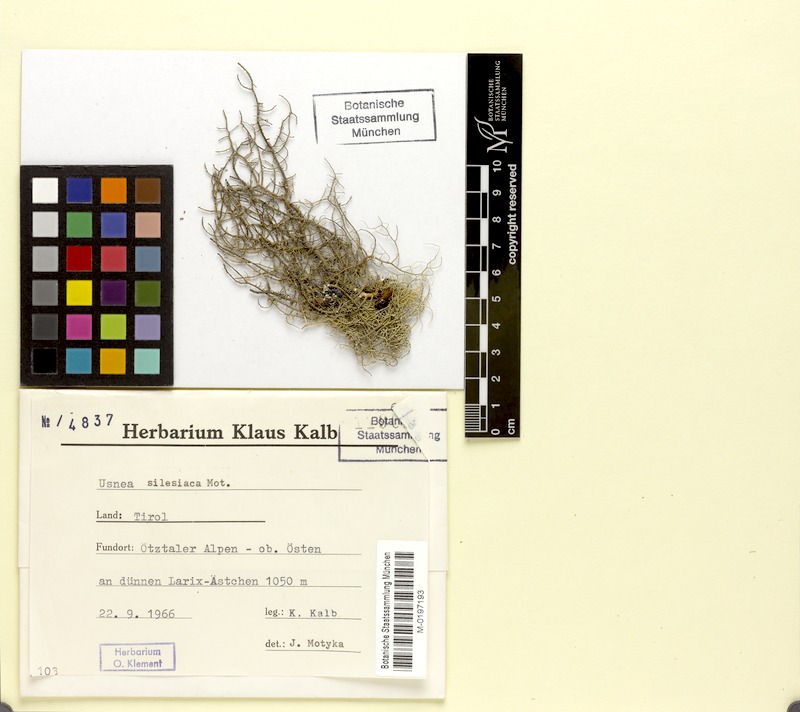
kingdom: Fungi
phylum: Ascomycota
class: Lecanoromycetes
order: Lecanorales
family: Parmeliaceae
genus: Usnea
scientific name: Usnea silesiaca
